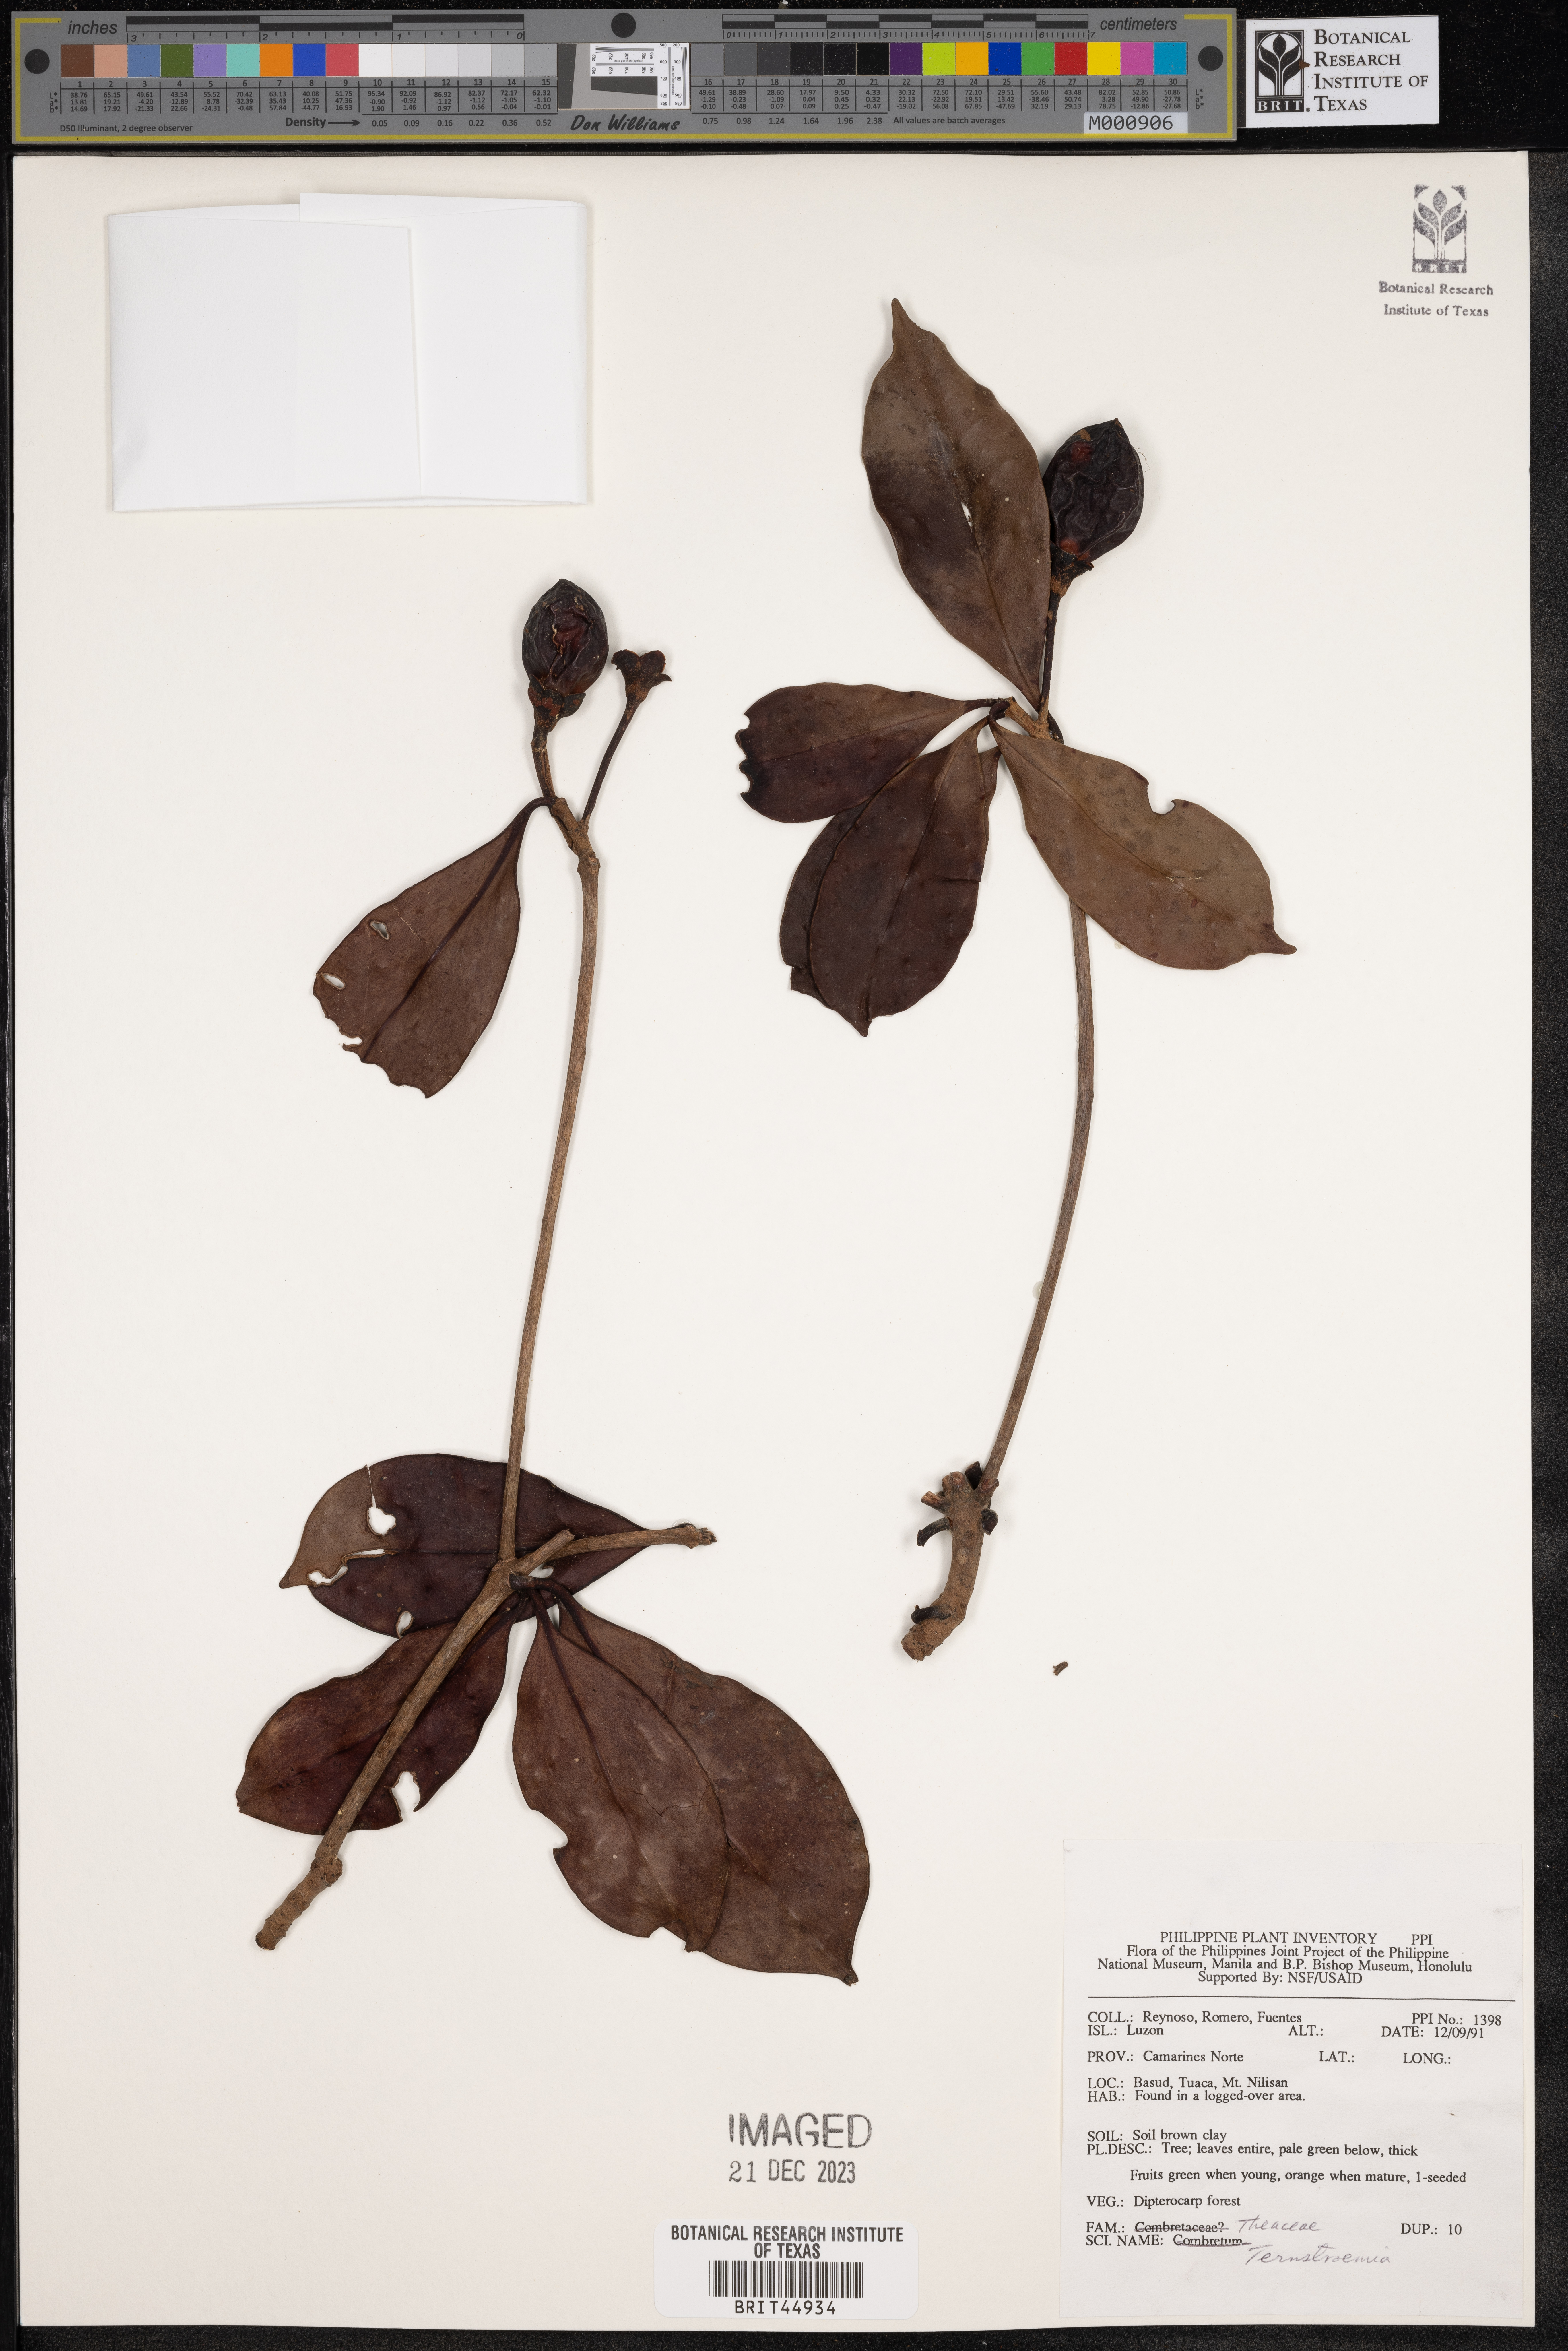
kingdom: Plantae
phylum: Tracheophyta
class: Magnoliopsida
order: Ericales
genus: Ternstroemia
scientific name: Ternstroemia
